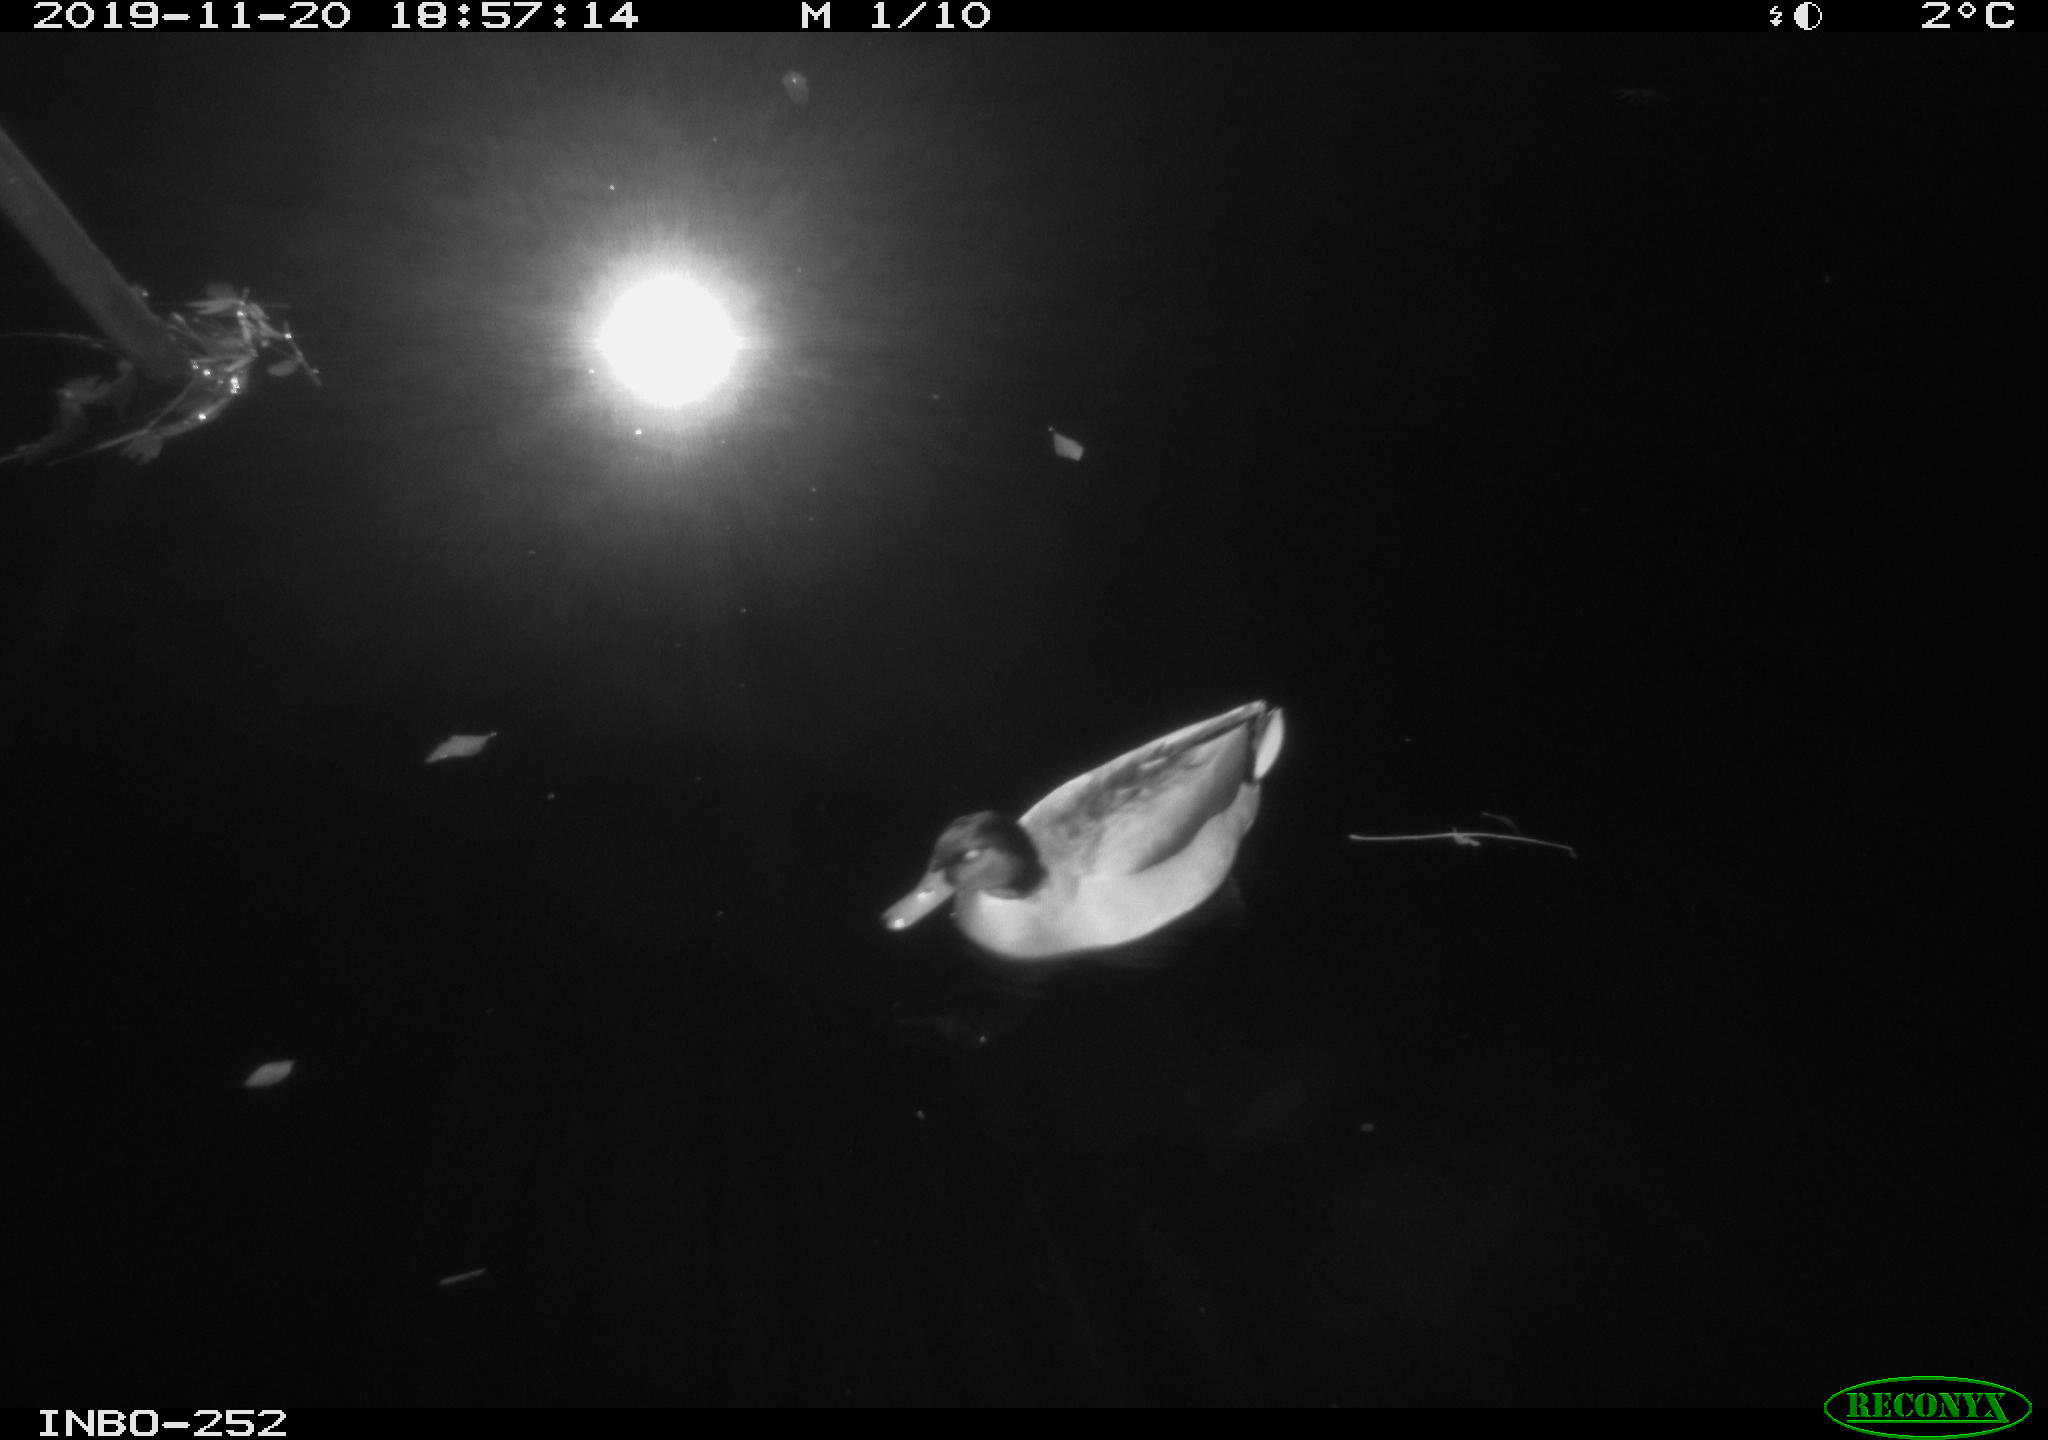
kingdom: Animalia
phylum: Chordata
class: Aves
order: Anseriformes
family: Anatidae
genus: Anas
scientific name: Anas platyrhynchos
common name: Mallard
